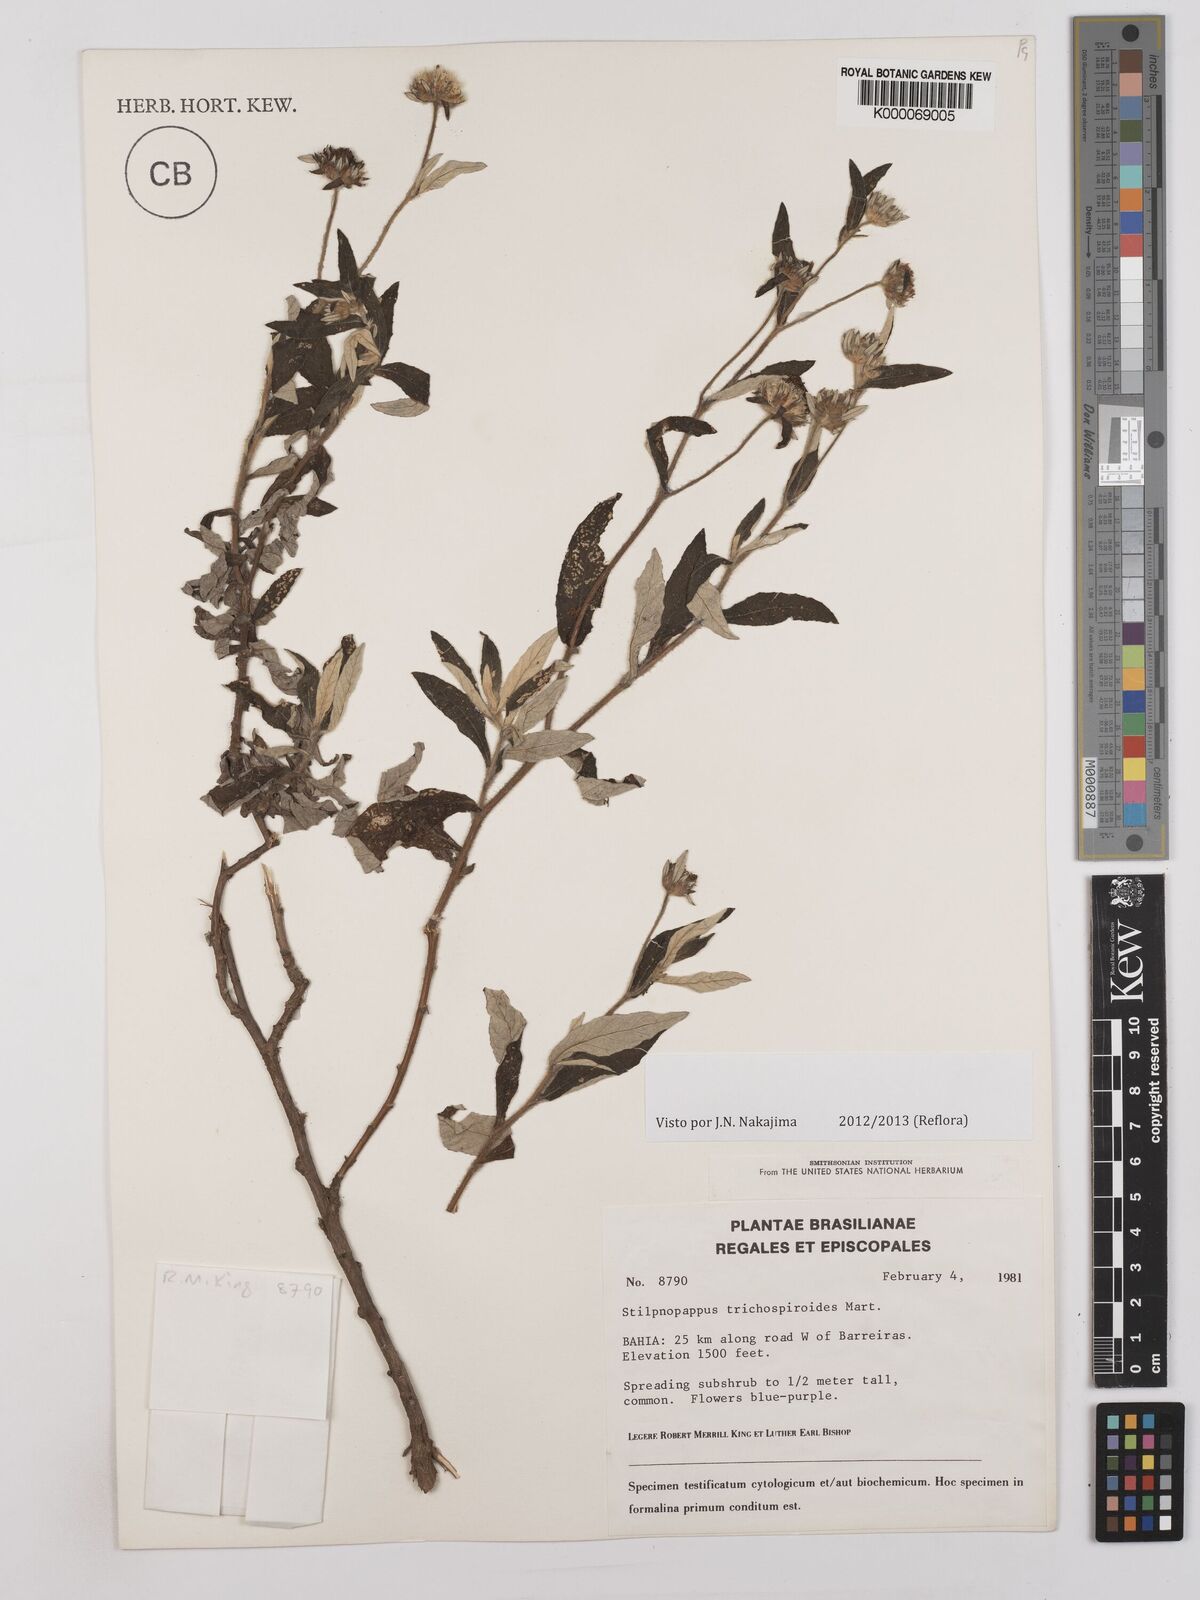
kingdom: Plantae
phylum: Tracheophyta
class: Magnoliopsida
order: Asterales
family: Asteraceae
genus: Stilpnopappus
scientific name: Stilpnopappus
